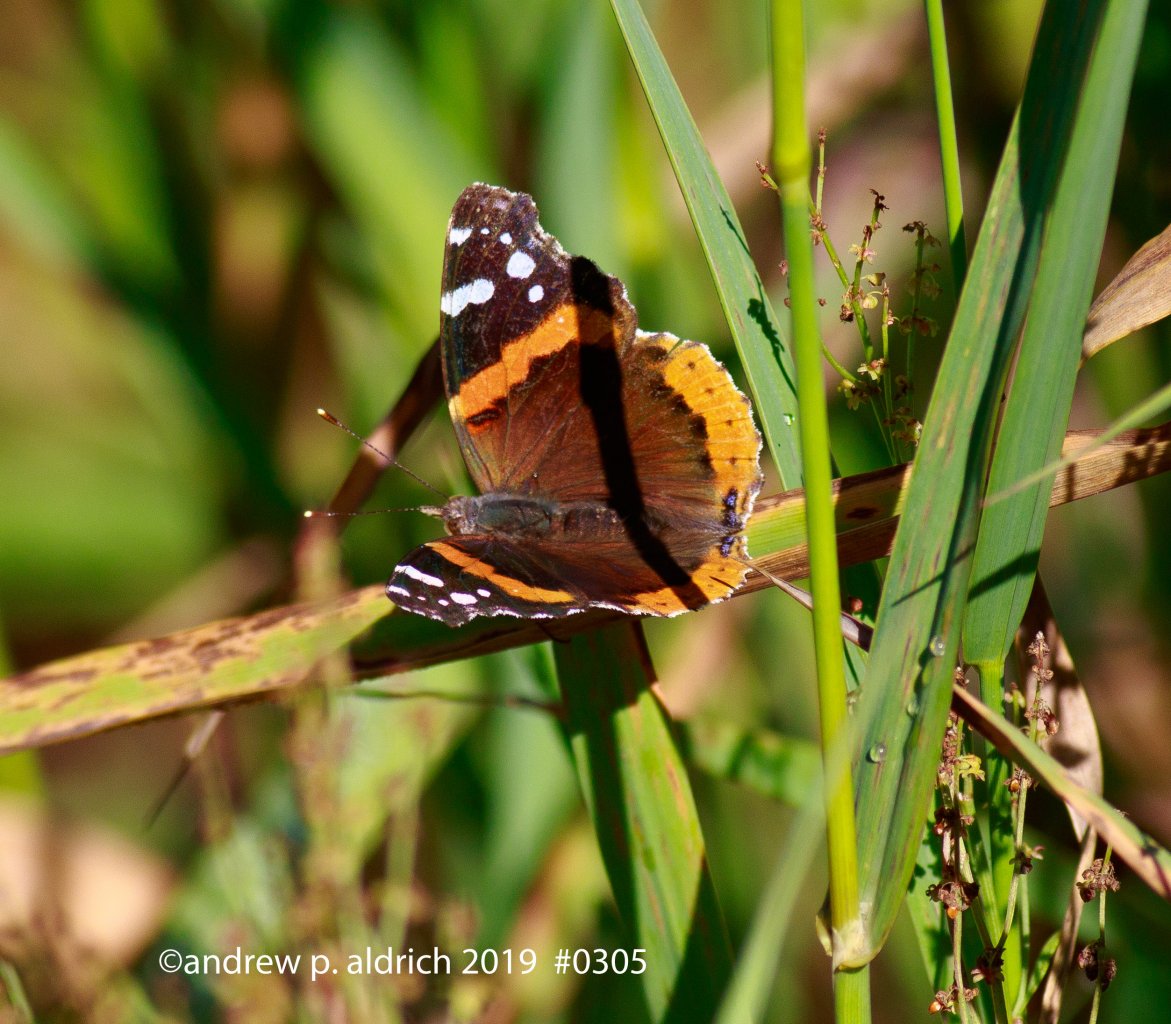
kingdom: Animalia
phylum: Arthropoda
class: Insecta
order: Lepidoptera
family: Nymphalidae
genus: Vanessa
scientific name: Vanessa atalanta
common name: Red Admiral
